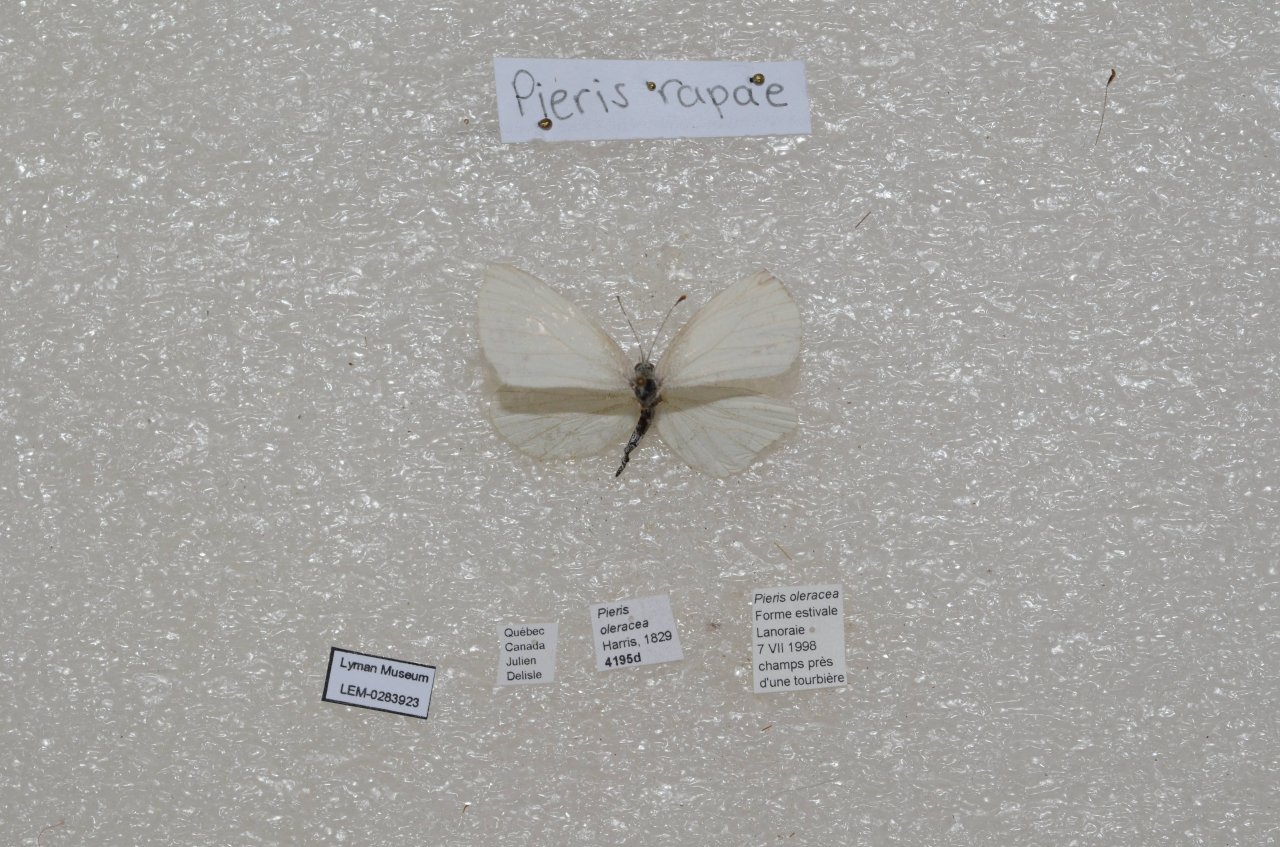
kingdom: Animalia
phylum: Arthropoda
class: Insecta
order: Lepidoptera
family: Pieridae
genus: Pieris
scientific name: Pieris oleracea
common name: Mustard White
